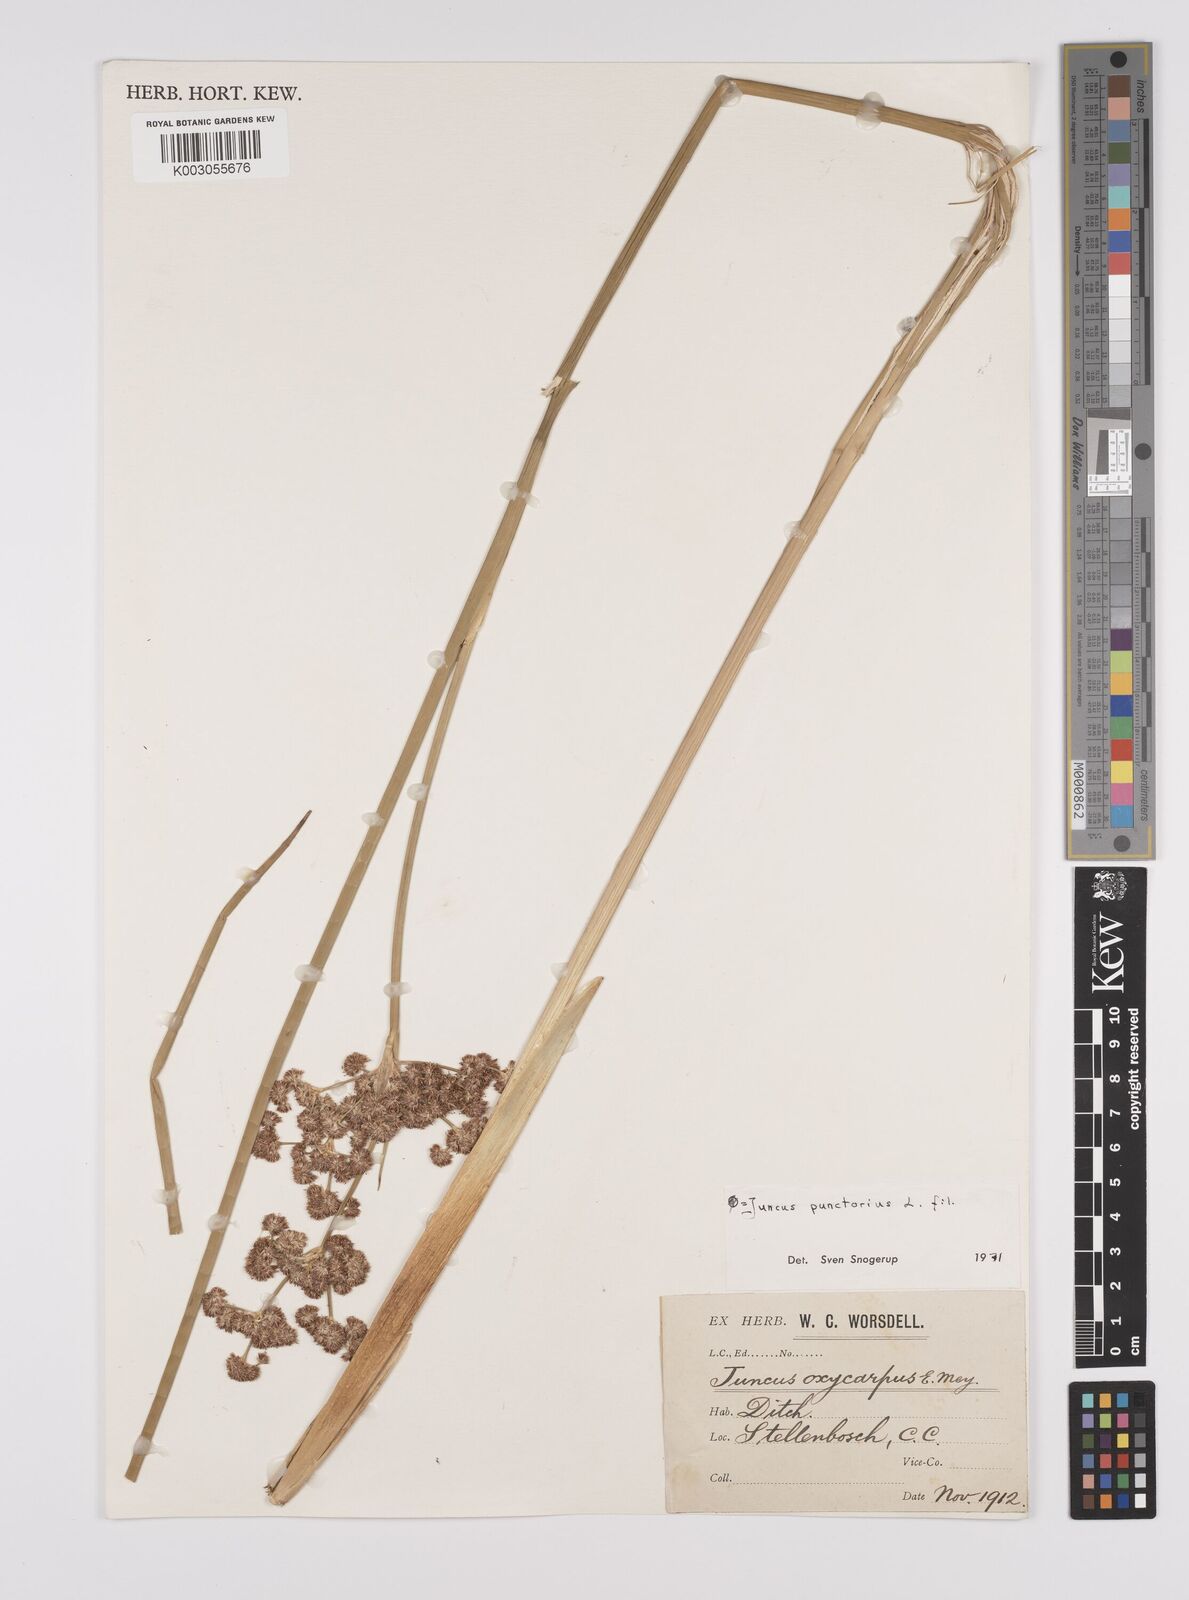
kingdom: Plantae
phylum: Tracheophyta
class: Liliopsida
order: Poales
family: Juncaceae
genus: Juncus
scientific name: Juncus punctorius
